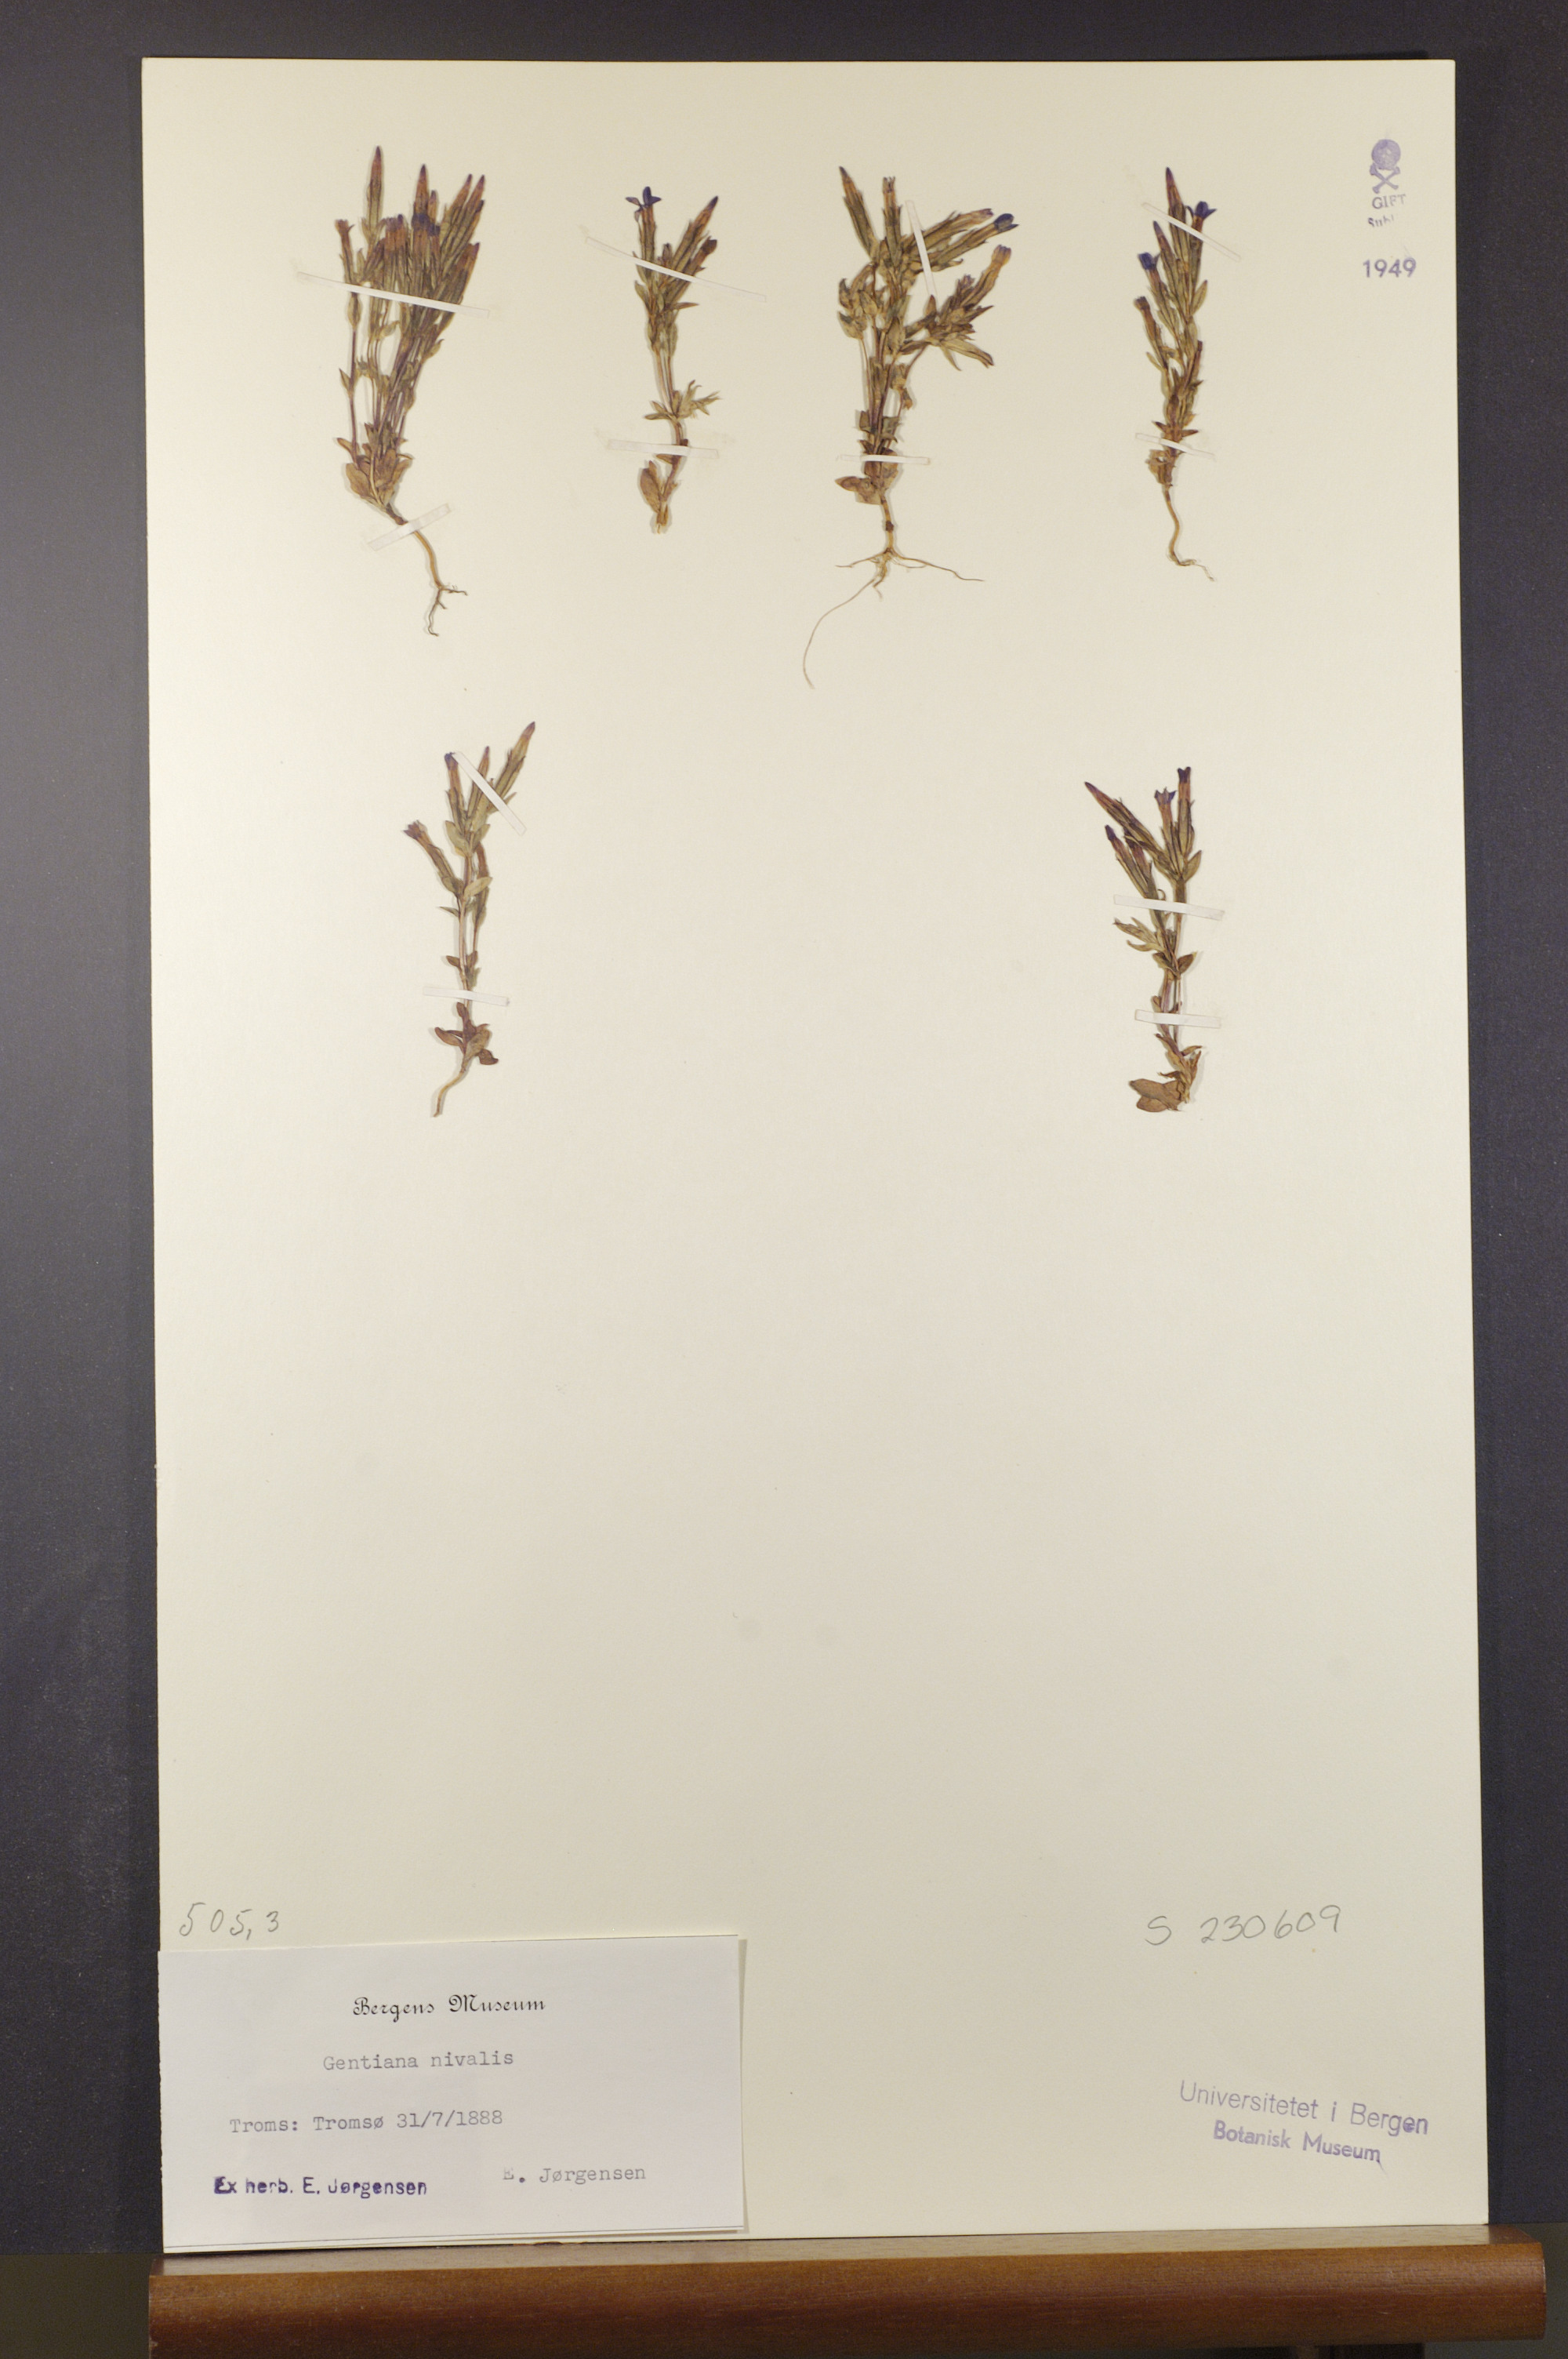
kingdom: Plantae
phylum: Tracheophyta
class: Magnoliopsida
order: Gentianales
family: Gentianaceae
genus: Gentiana
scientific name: Gentiana nivalis
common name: Alpine gentian
